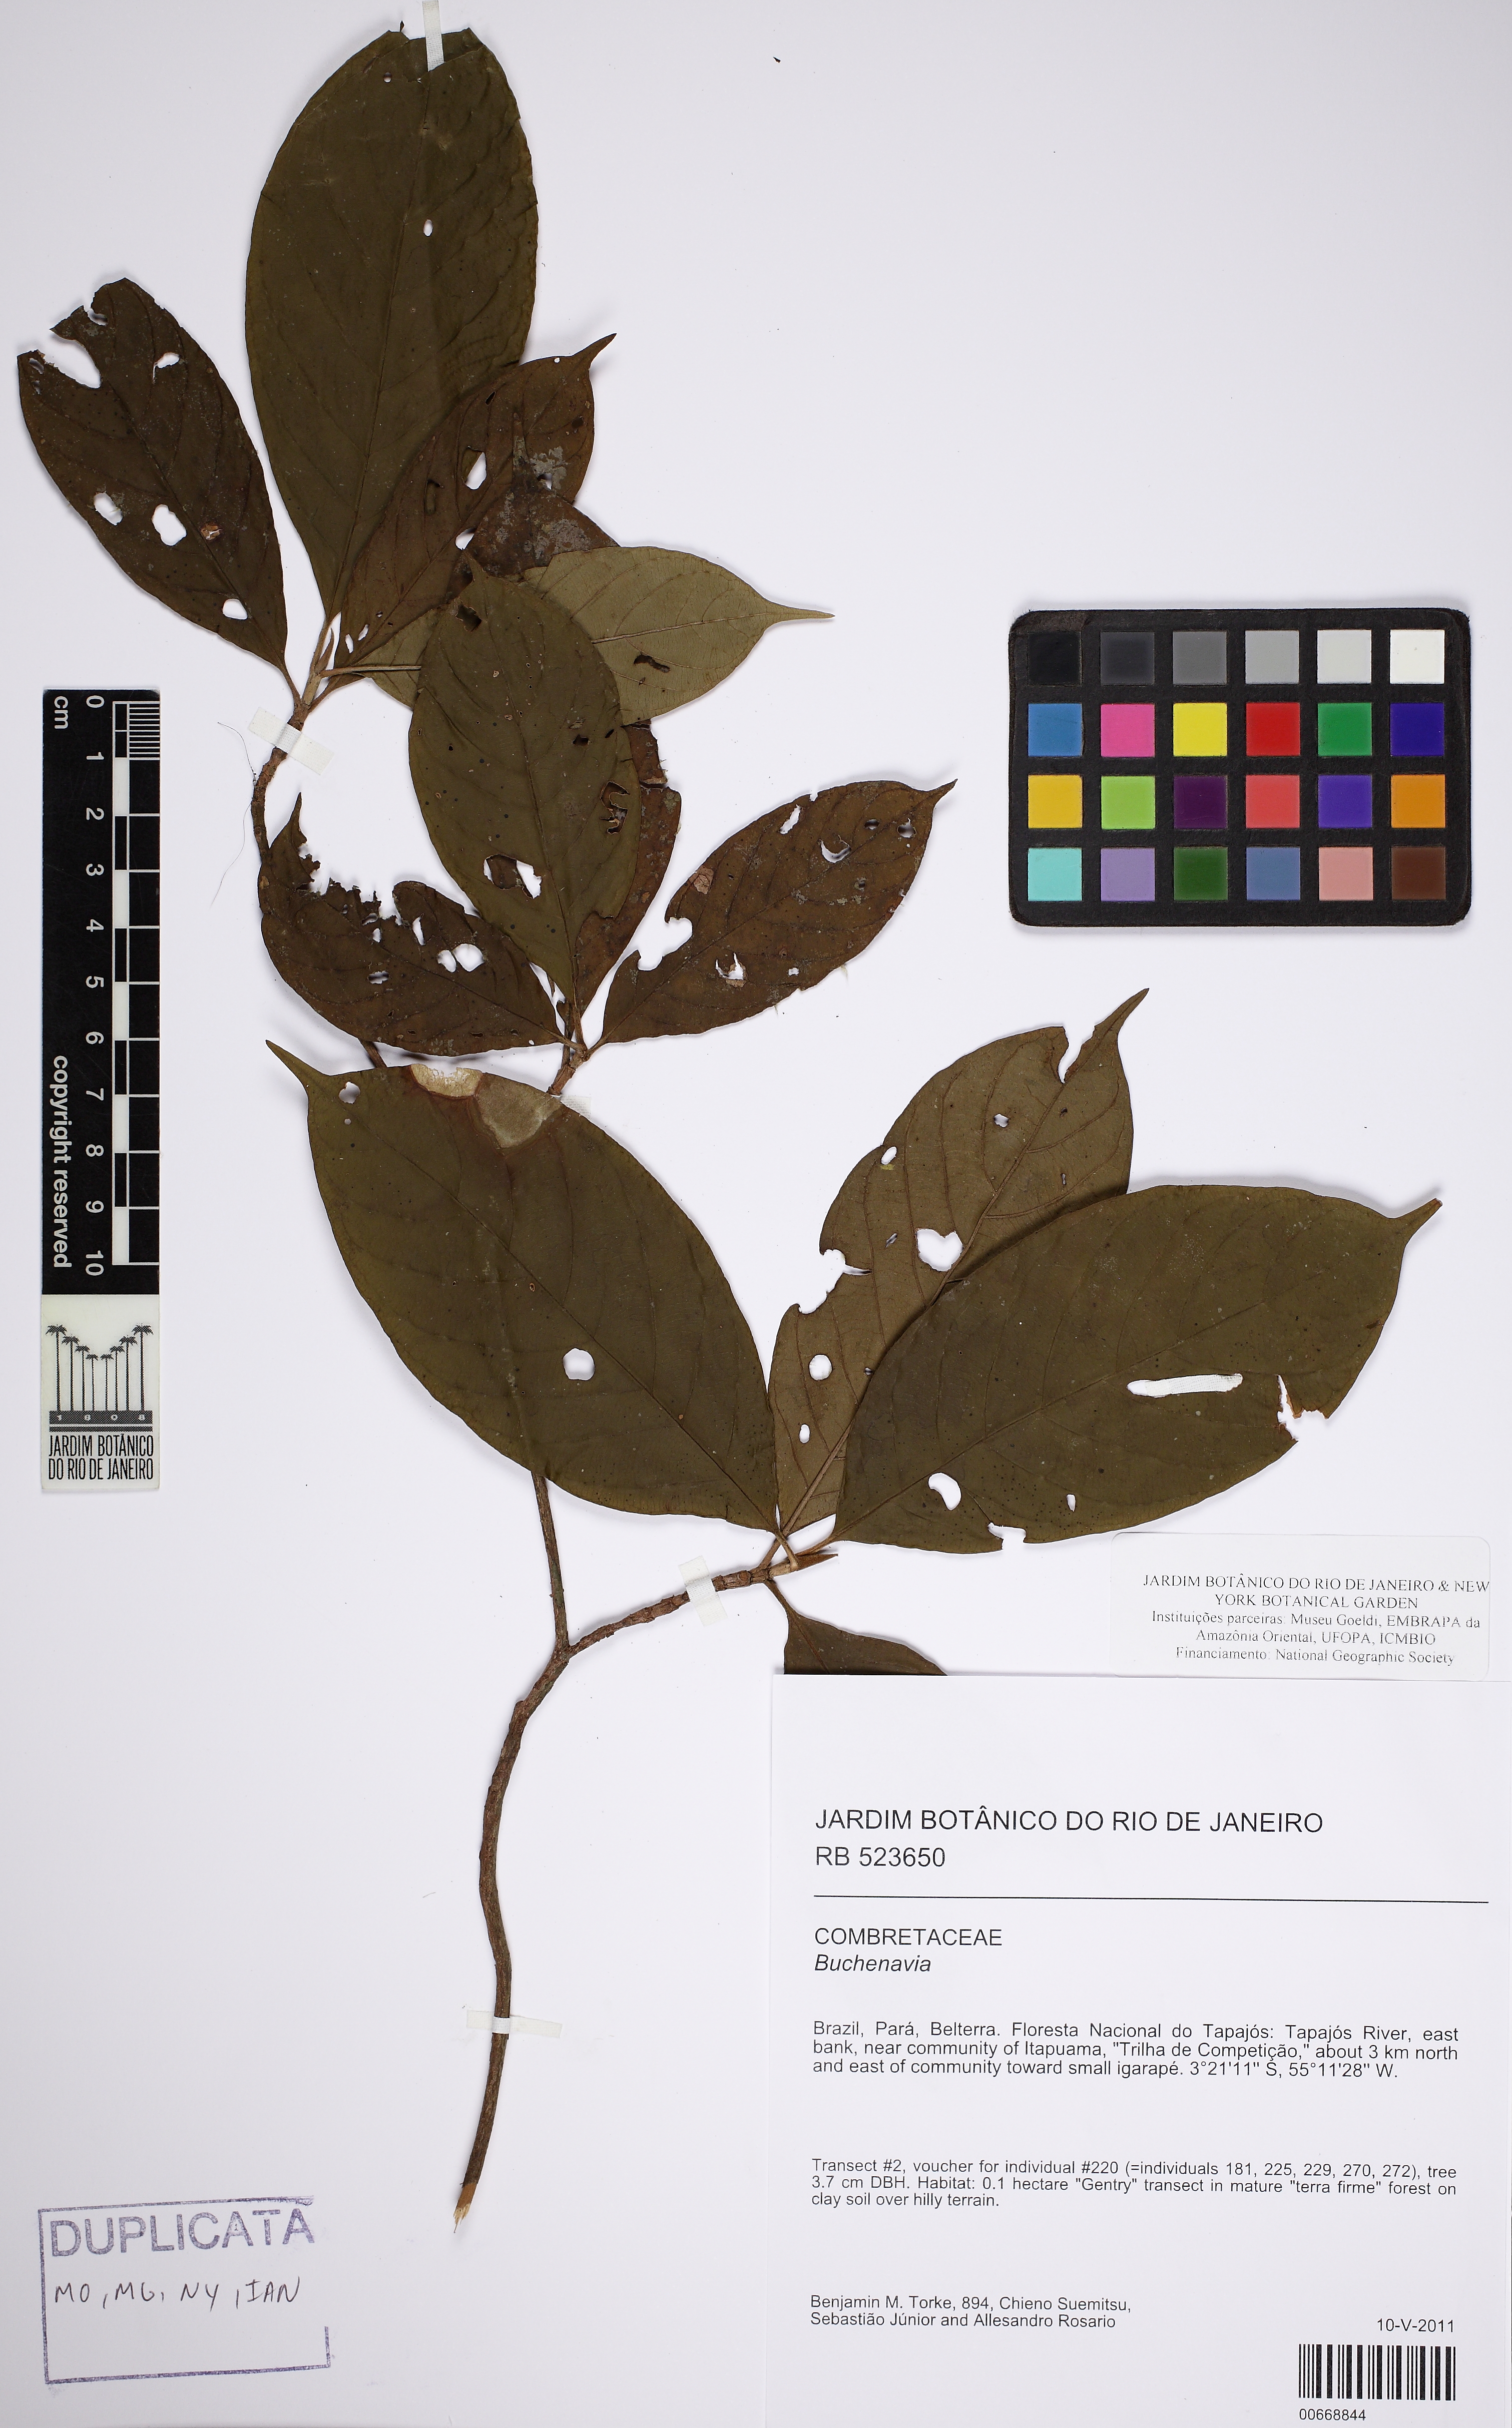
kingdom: Plantae
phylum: Tracheophyta
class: Magnoliopsida
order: Myrtales
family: Combretaceae
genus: Terminalia
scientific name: Terminalia
